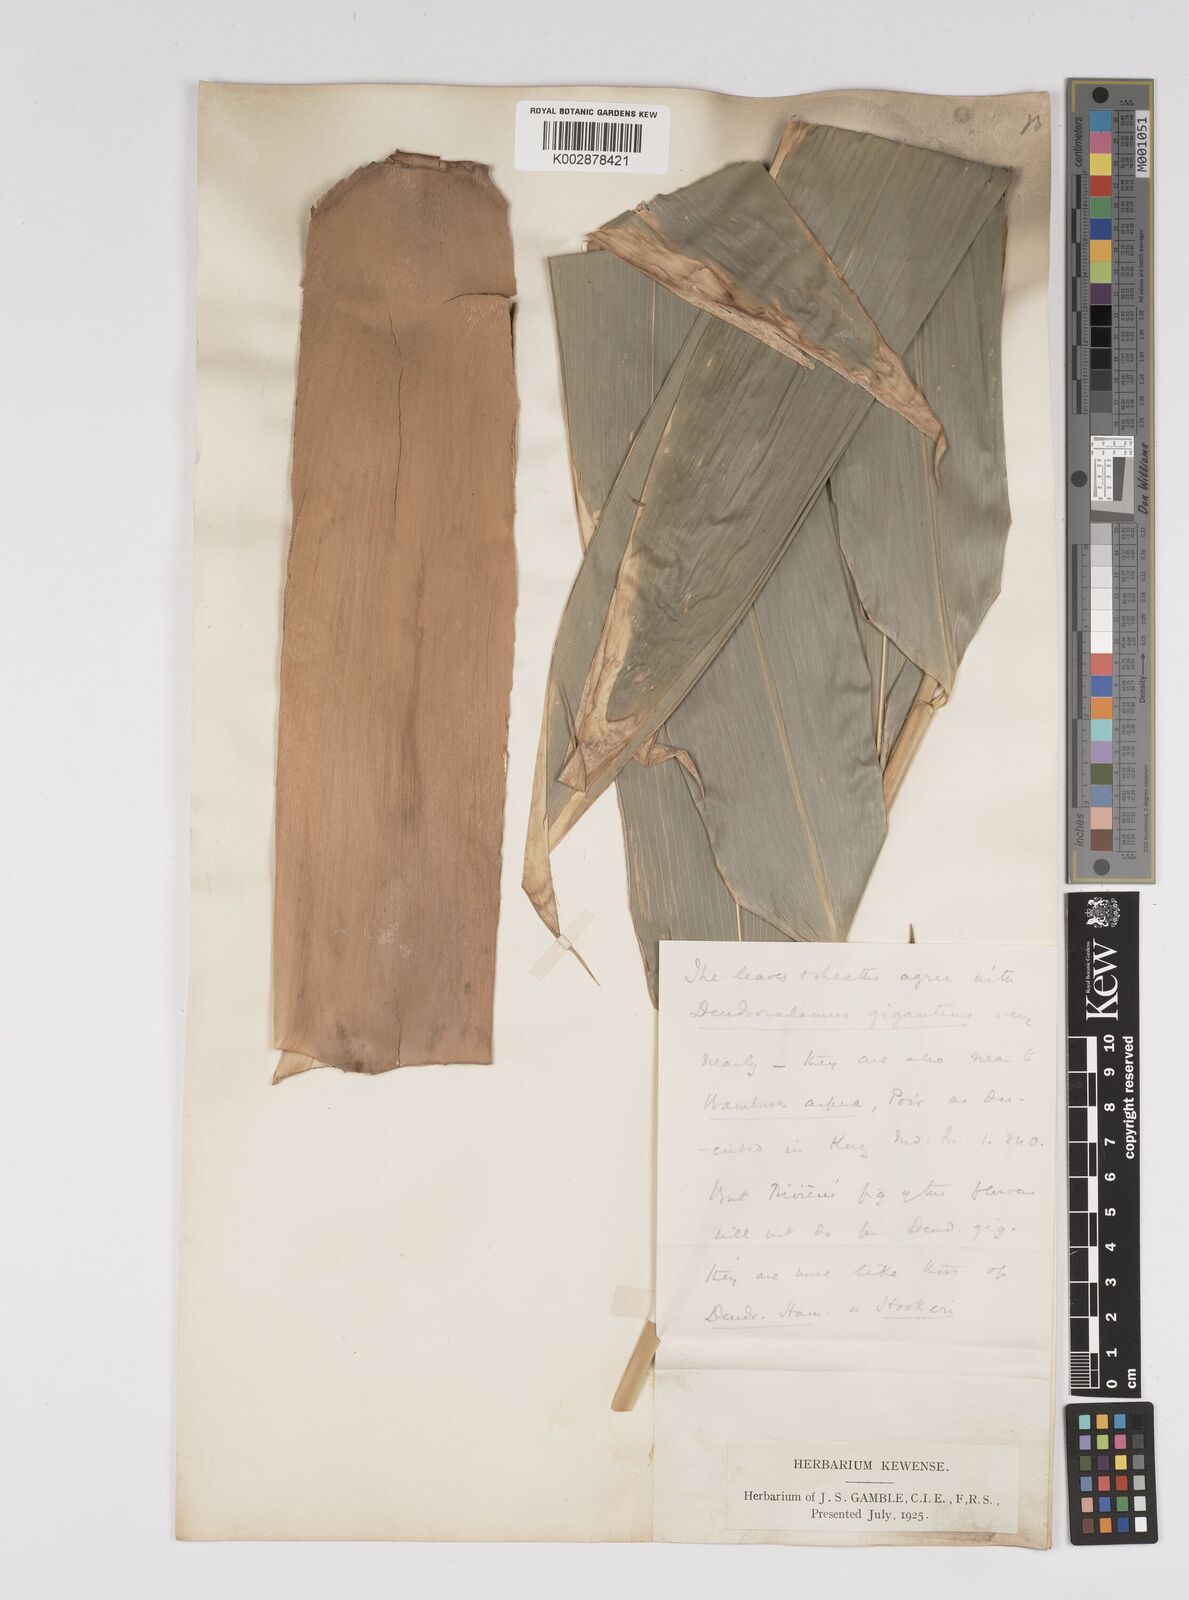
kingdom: Plantae
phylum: Tracheophyta
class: Liliopsida
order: Poales
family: Poaceae
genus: Dendrocalamus
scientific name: Dendrocalamus giganteus
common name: Giant bamboo
